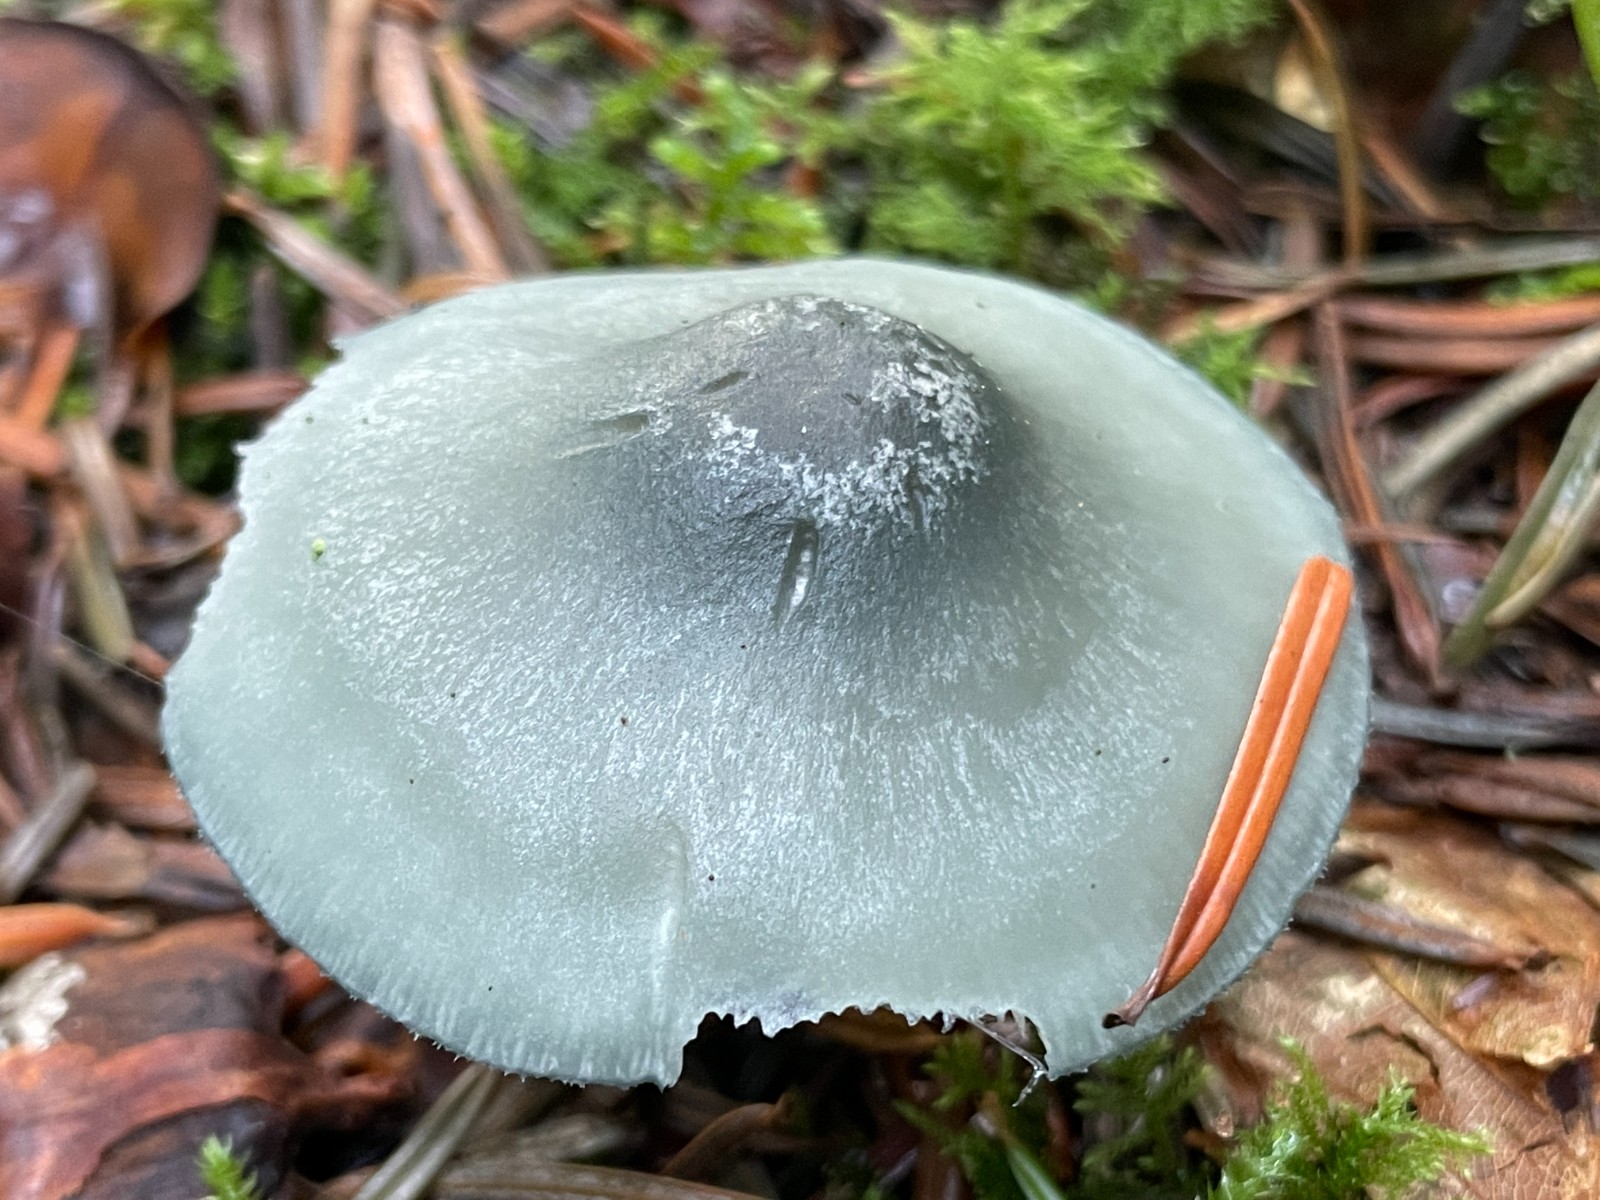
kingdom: Fungi
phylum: Basidiomycota
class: Agaricomycetes
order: Agaricales
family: Tricholomataceae
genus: Clitocybe
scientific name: Clitocybe odora
